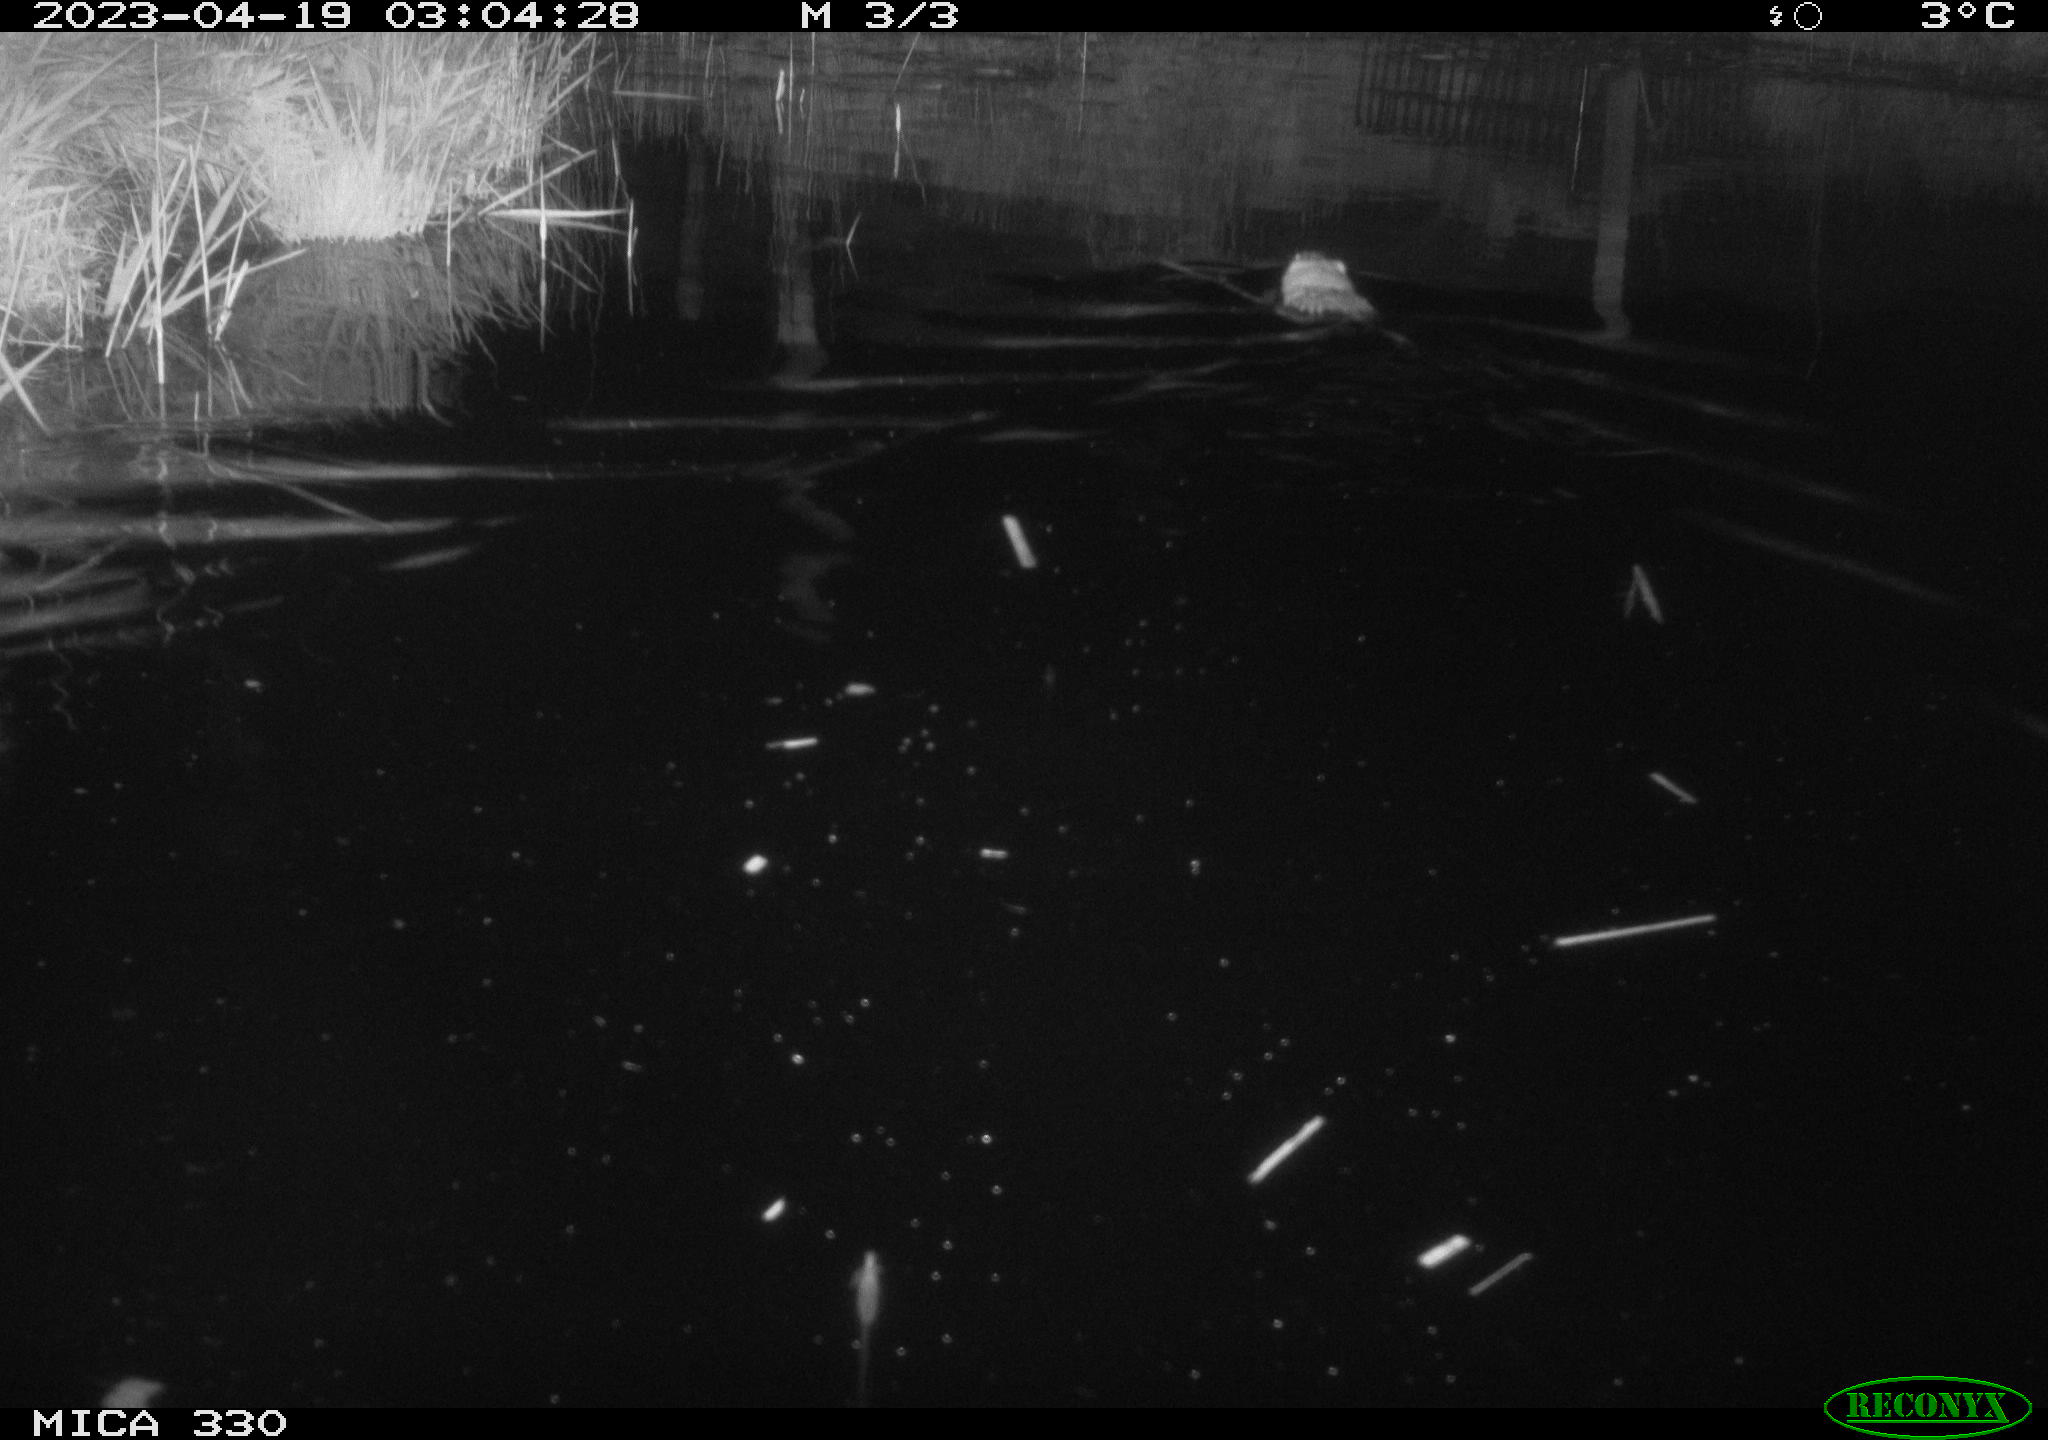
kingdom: Animalia
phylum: Chordata
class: Mammalia
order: Rodentia
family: Cricetidae
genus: Ondatra
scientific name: Ondatra zibethicus
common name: Muskrat
